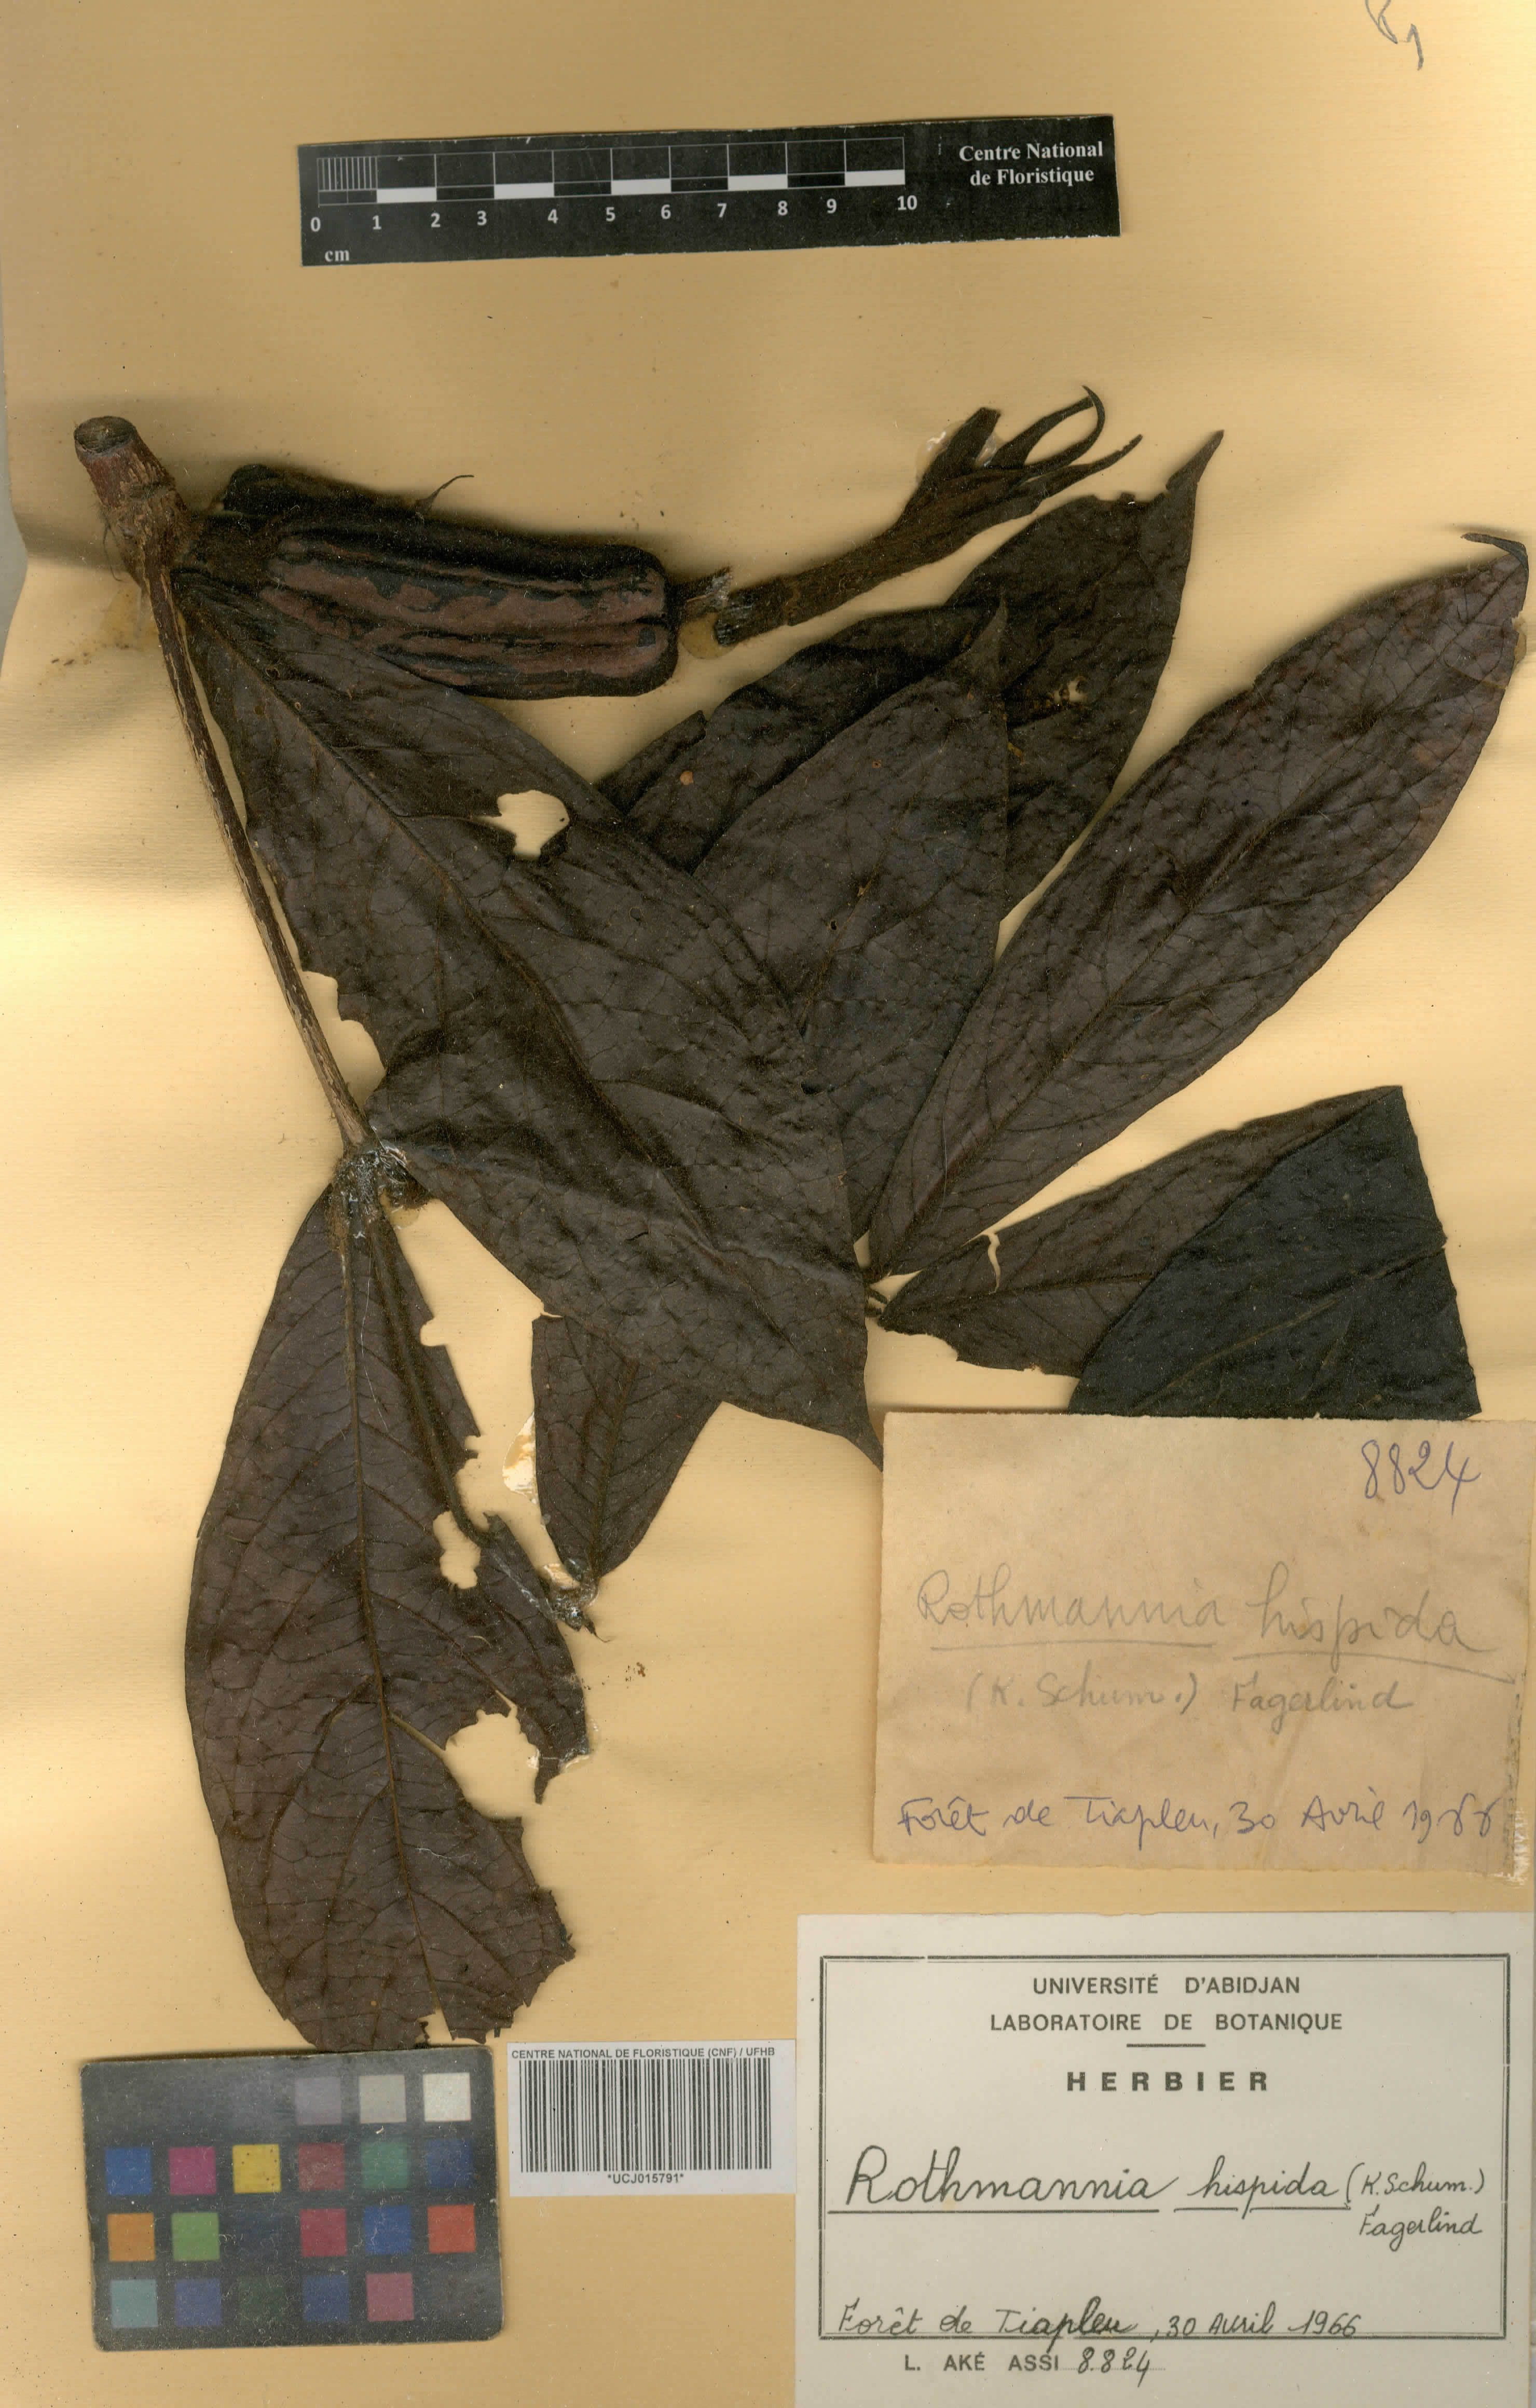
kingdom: Plantae
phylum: Tracheophyta
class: Magnoliopsida
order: Gentianales
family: Rubiaceae
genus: Rothmannia
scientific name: Rothmannia hispida
